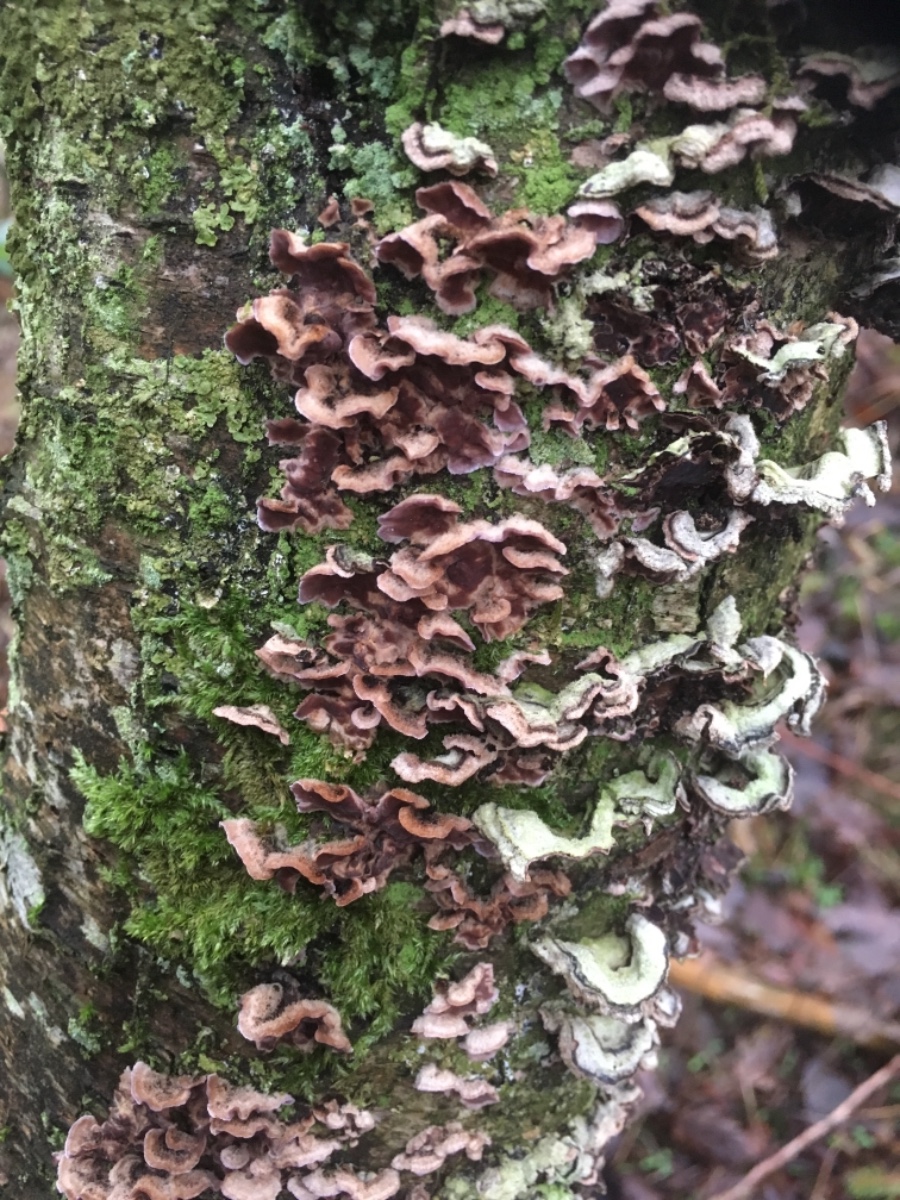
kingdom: Fungi
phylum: Basidiomycota
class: Agaricomycetes
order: Agaricales
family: Cyphellaceae
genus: Chondrostereum
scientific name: Chondrostereum purpureum
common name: purpurlædersvamp
